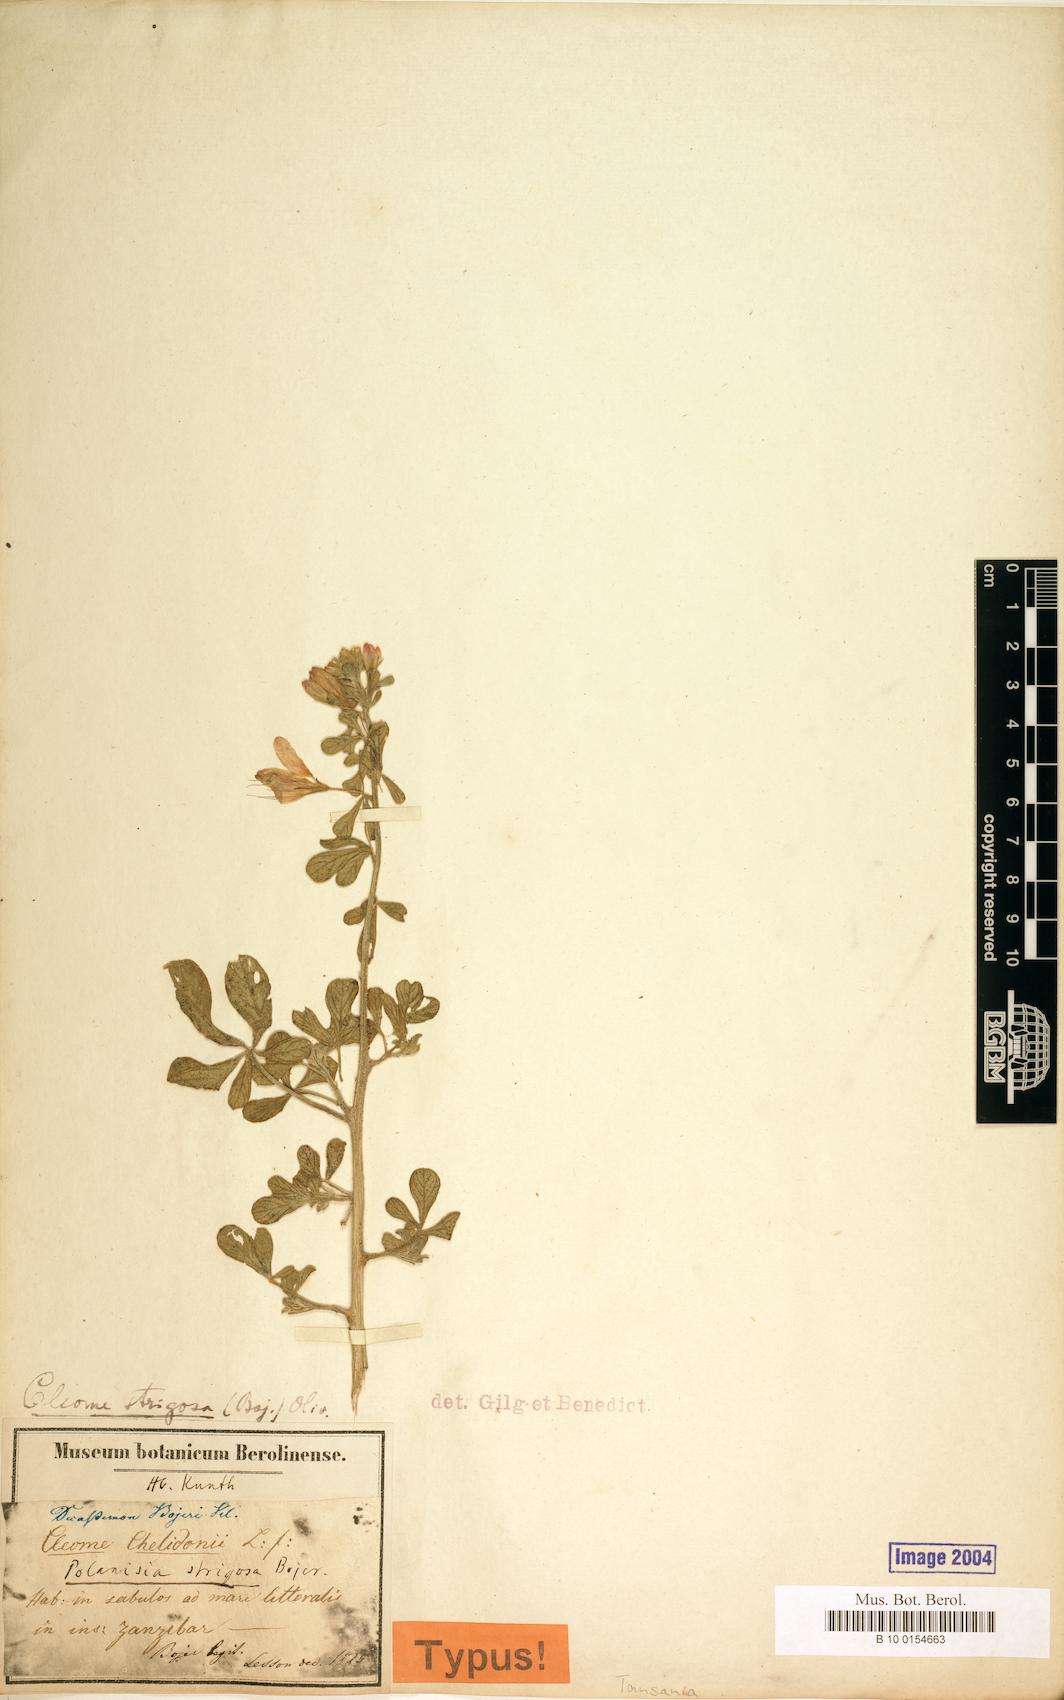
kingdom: Plantae
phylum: Tracheophyta
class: Magnoliopsida
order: Brassicales
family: Cleomaceae
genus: Sieruela
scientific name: Sieruela strigosa
